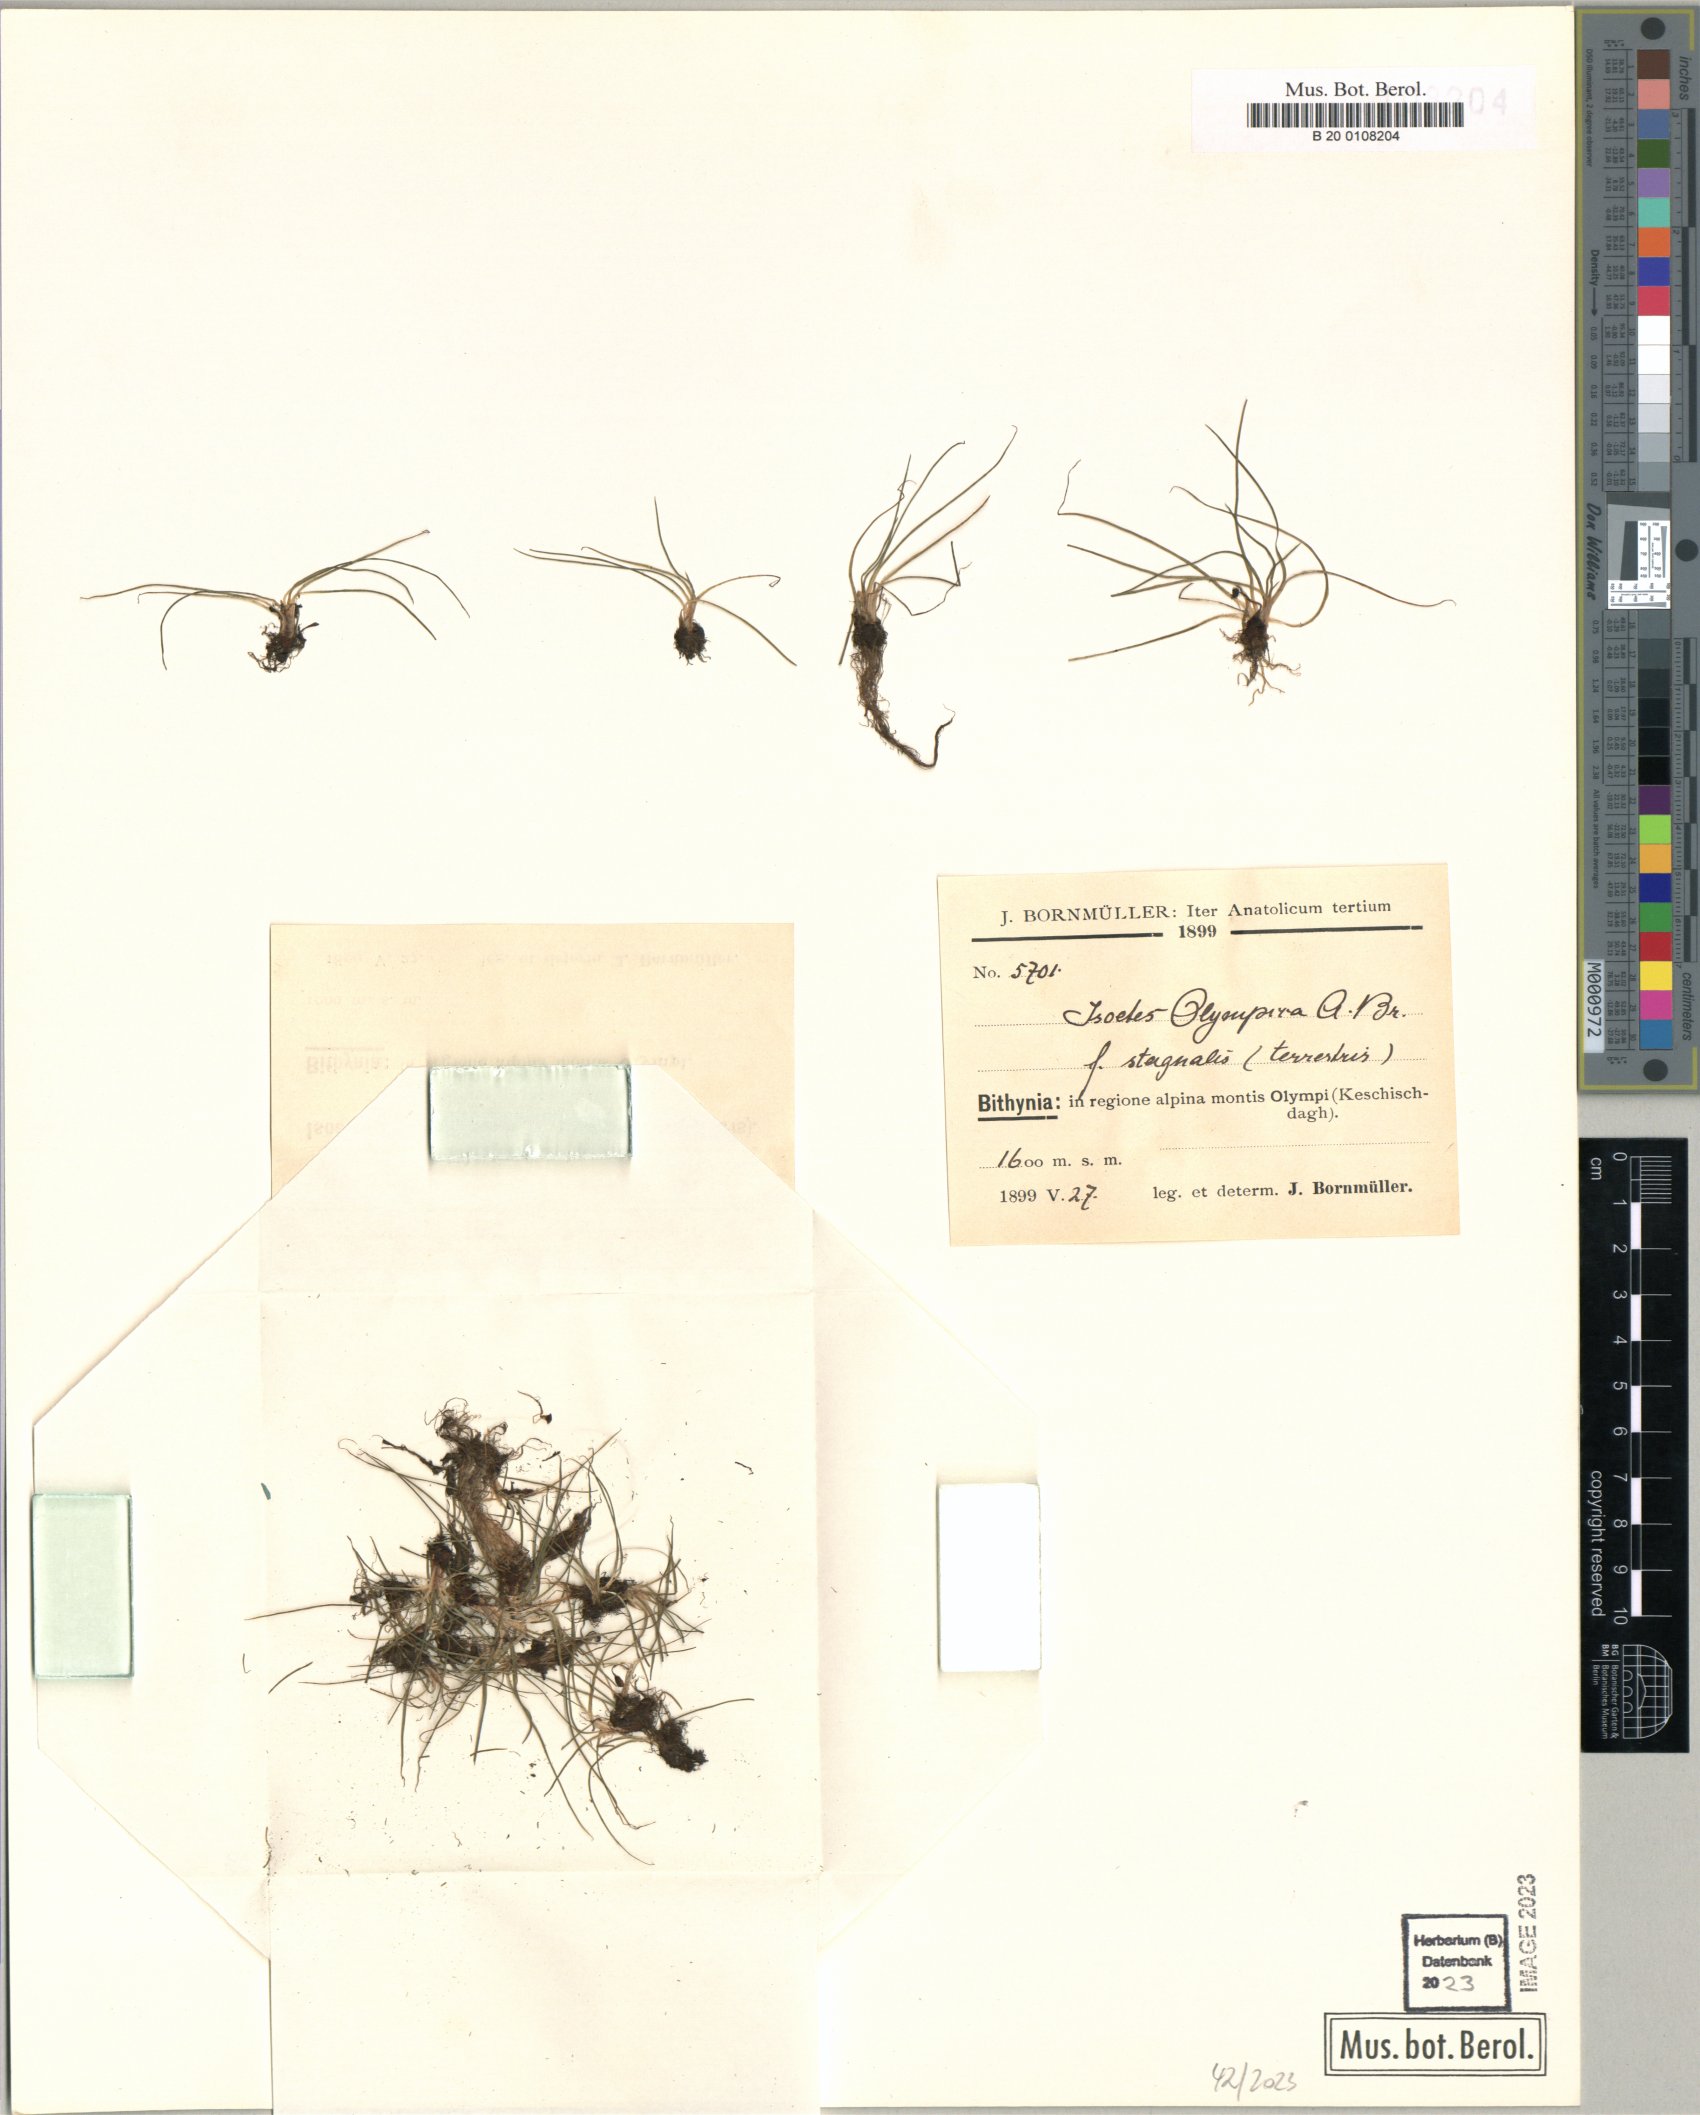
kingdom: Plantae
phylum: Tracheophyta
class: Lycopodiopsida
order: Isoetales
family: Isoetaceae
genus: Isoetes
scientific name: Isoetes olympica
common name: Olympic quillwort
